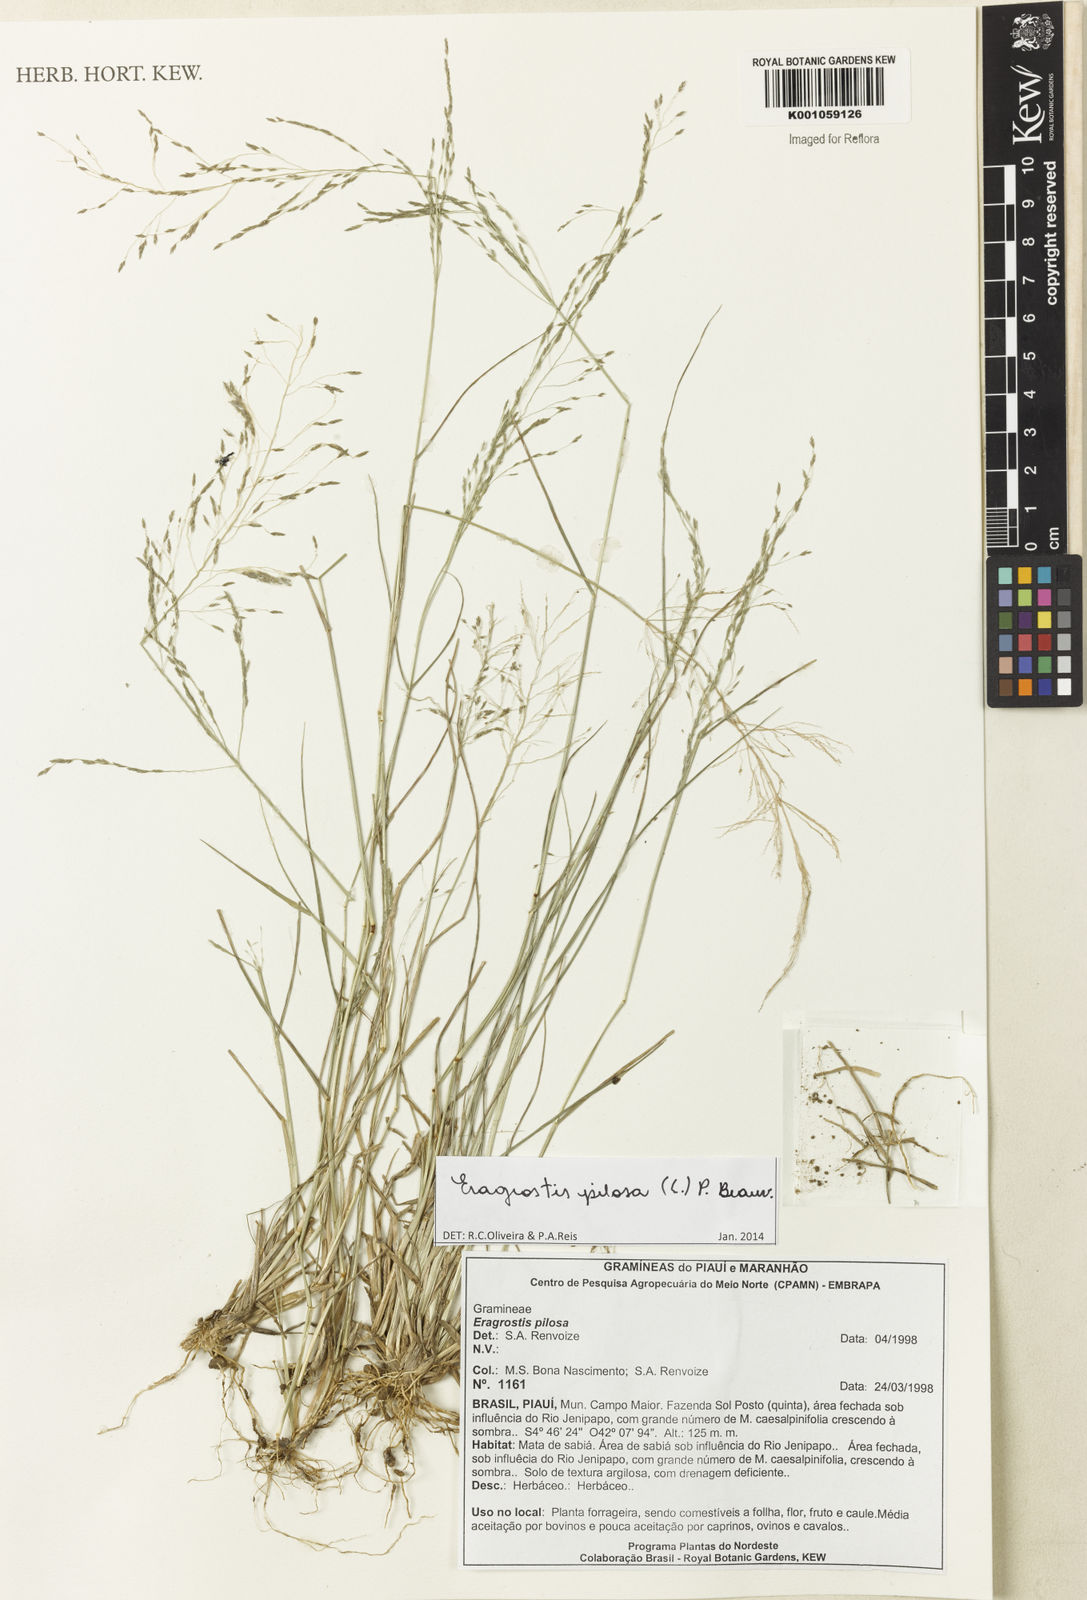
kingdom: Plantae
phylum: Tracheophyta
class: Liliopsida
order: Poales
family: Poaceae
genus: Eragrostis
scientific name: Eragrostis pilosa
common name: Indian lovegrass
